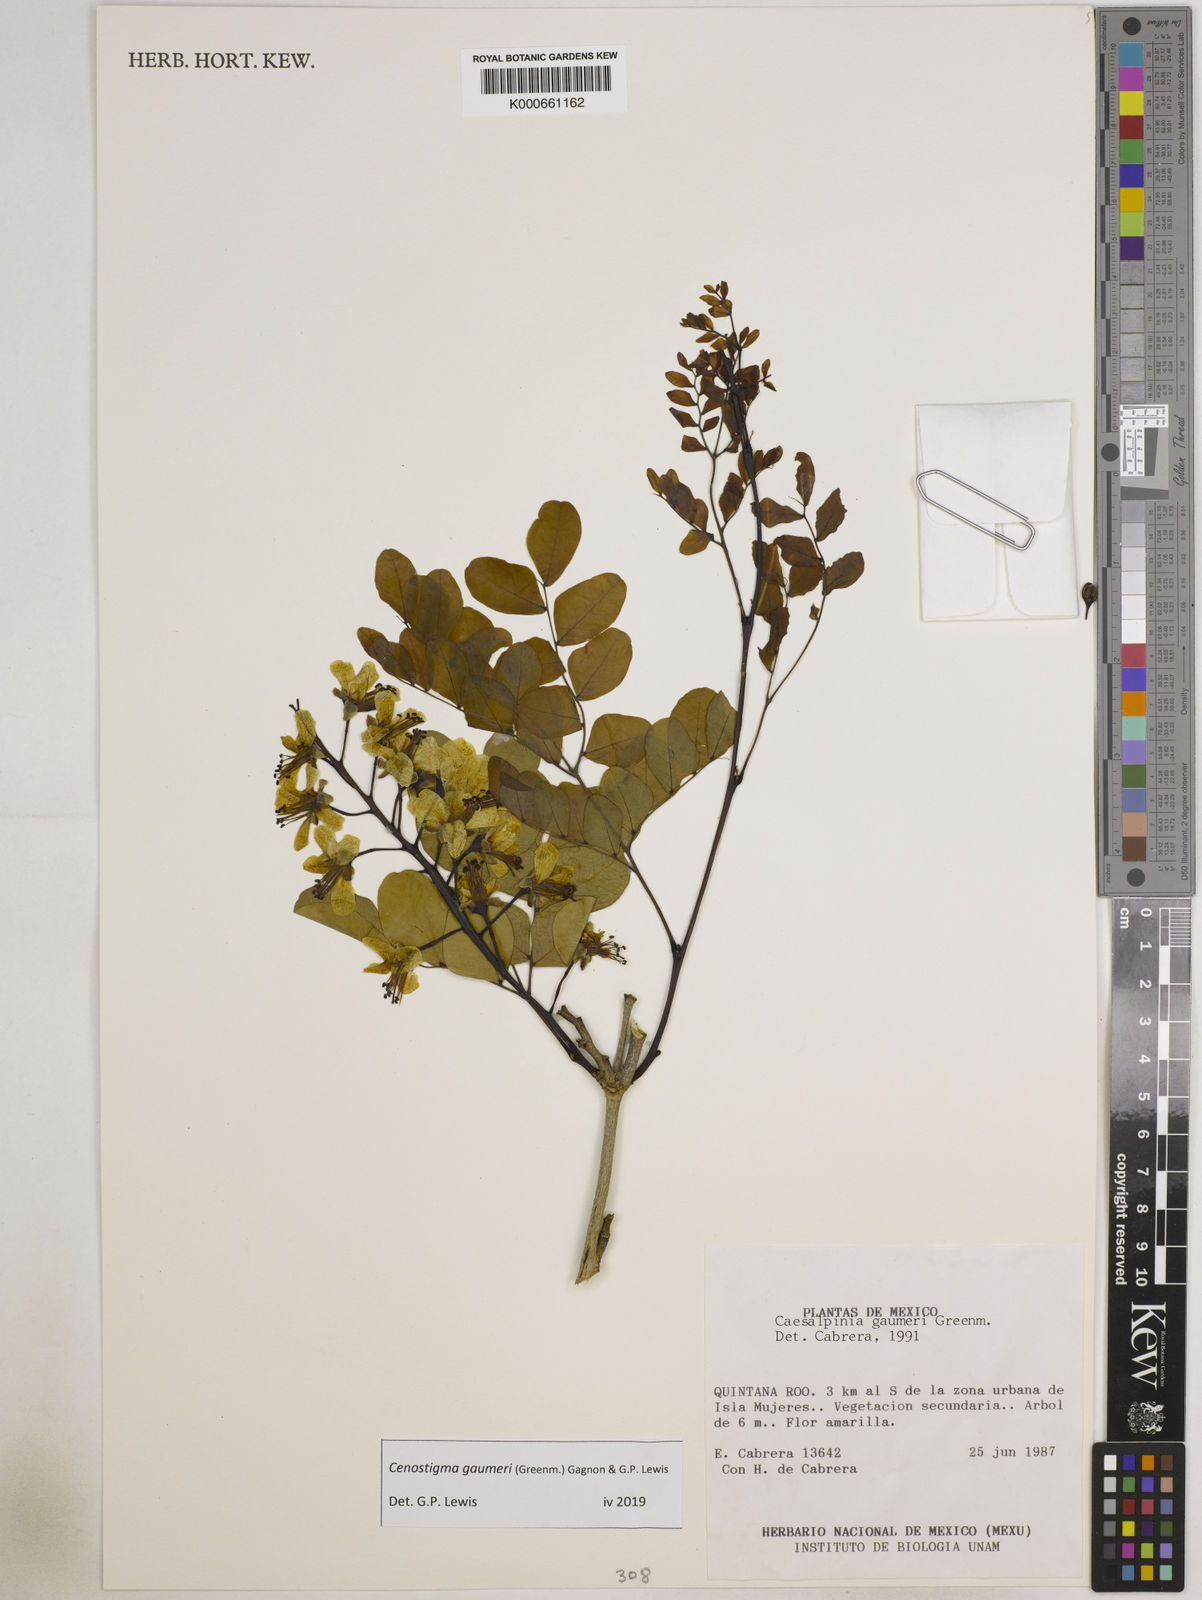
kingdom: Plantae
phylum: Tracheophyta
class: Magnoliopsida
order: Fabales
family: Fabaceae
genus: Cenostigma
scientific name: Cenostigma gaumeri
